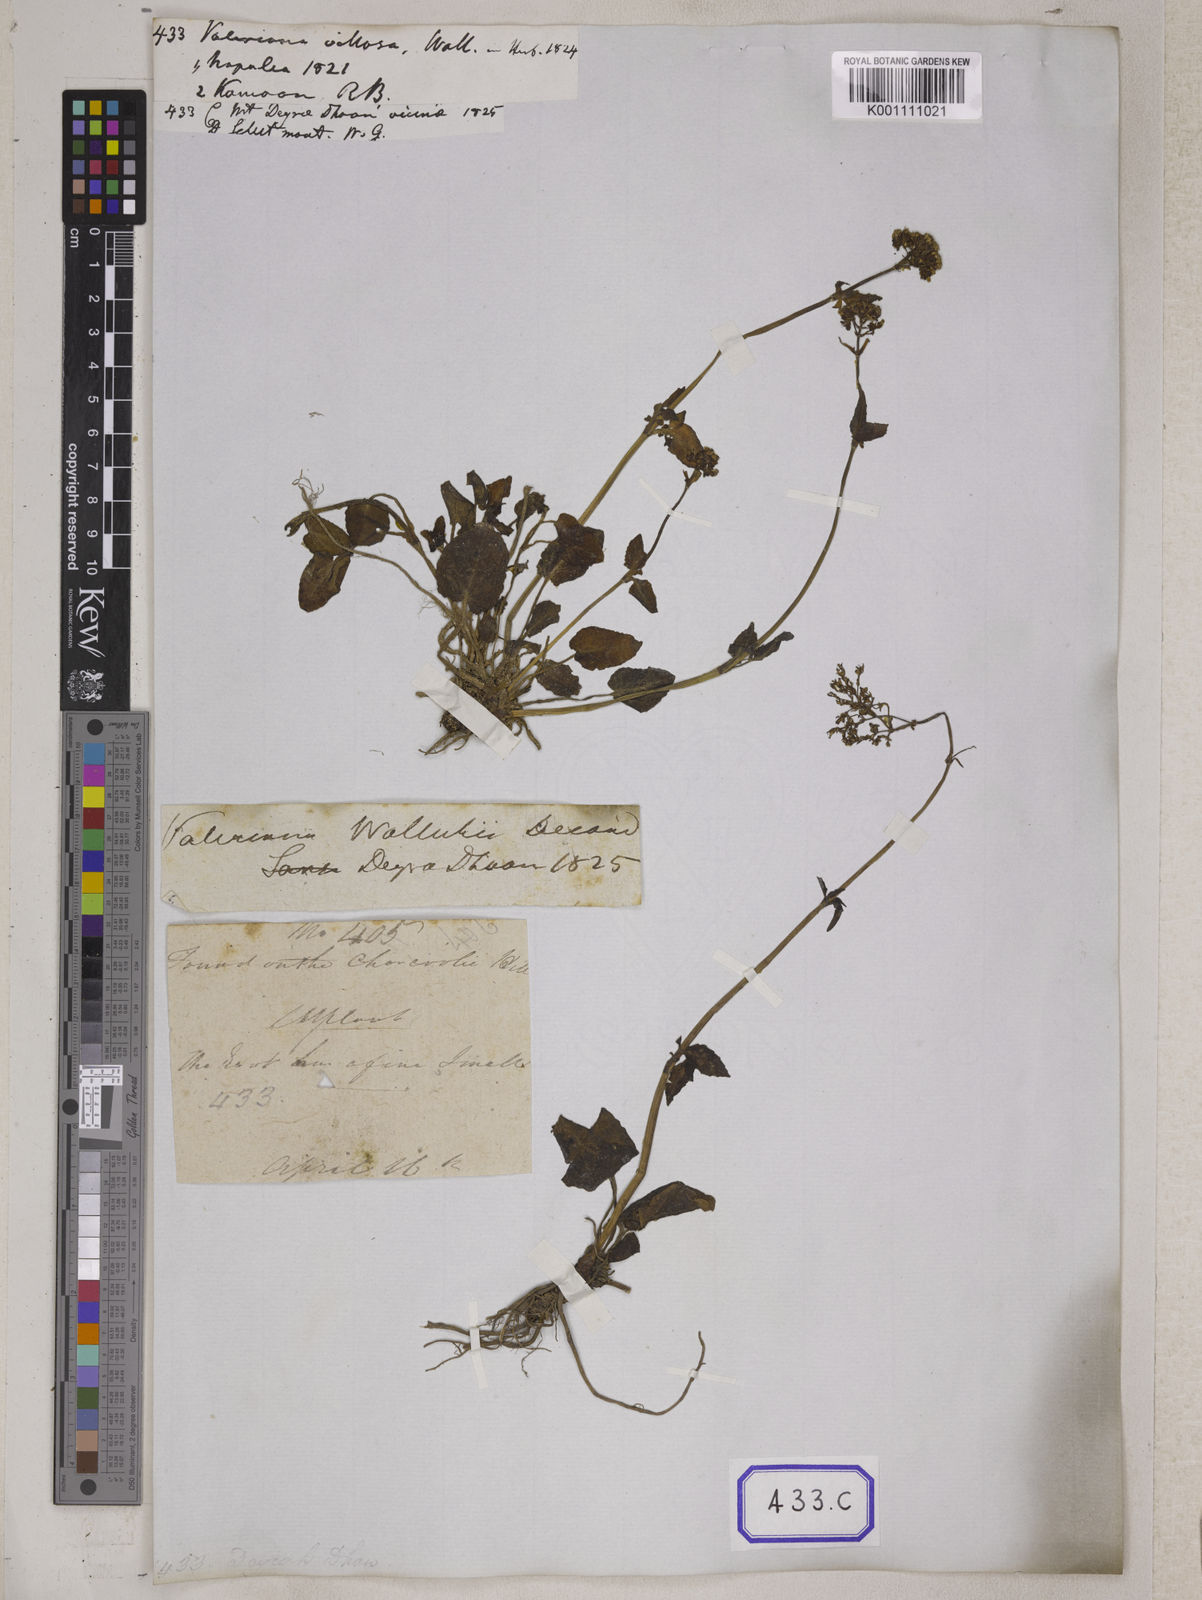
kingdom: Plantae
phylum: Tracheophyta
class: Magnoliopsida
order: Dipsacales
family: Caprifoliaceae
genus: Valeriana
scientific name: Valeriana
